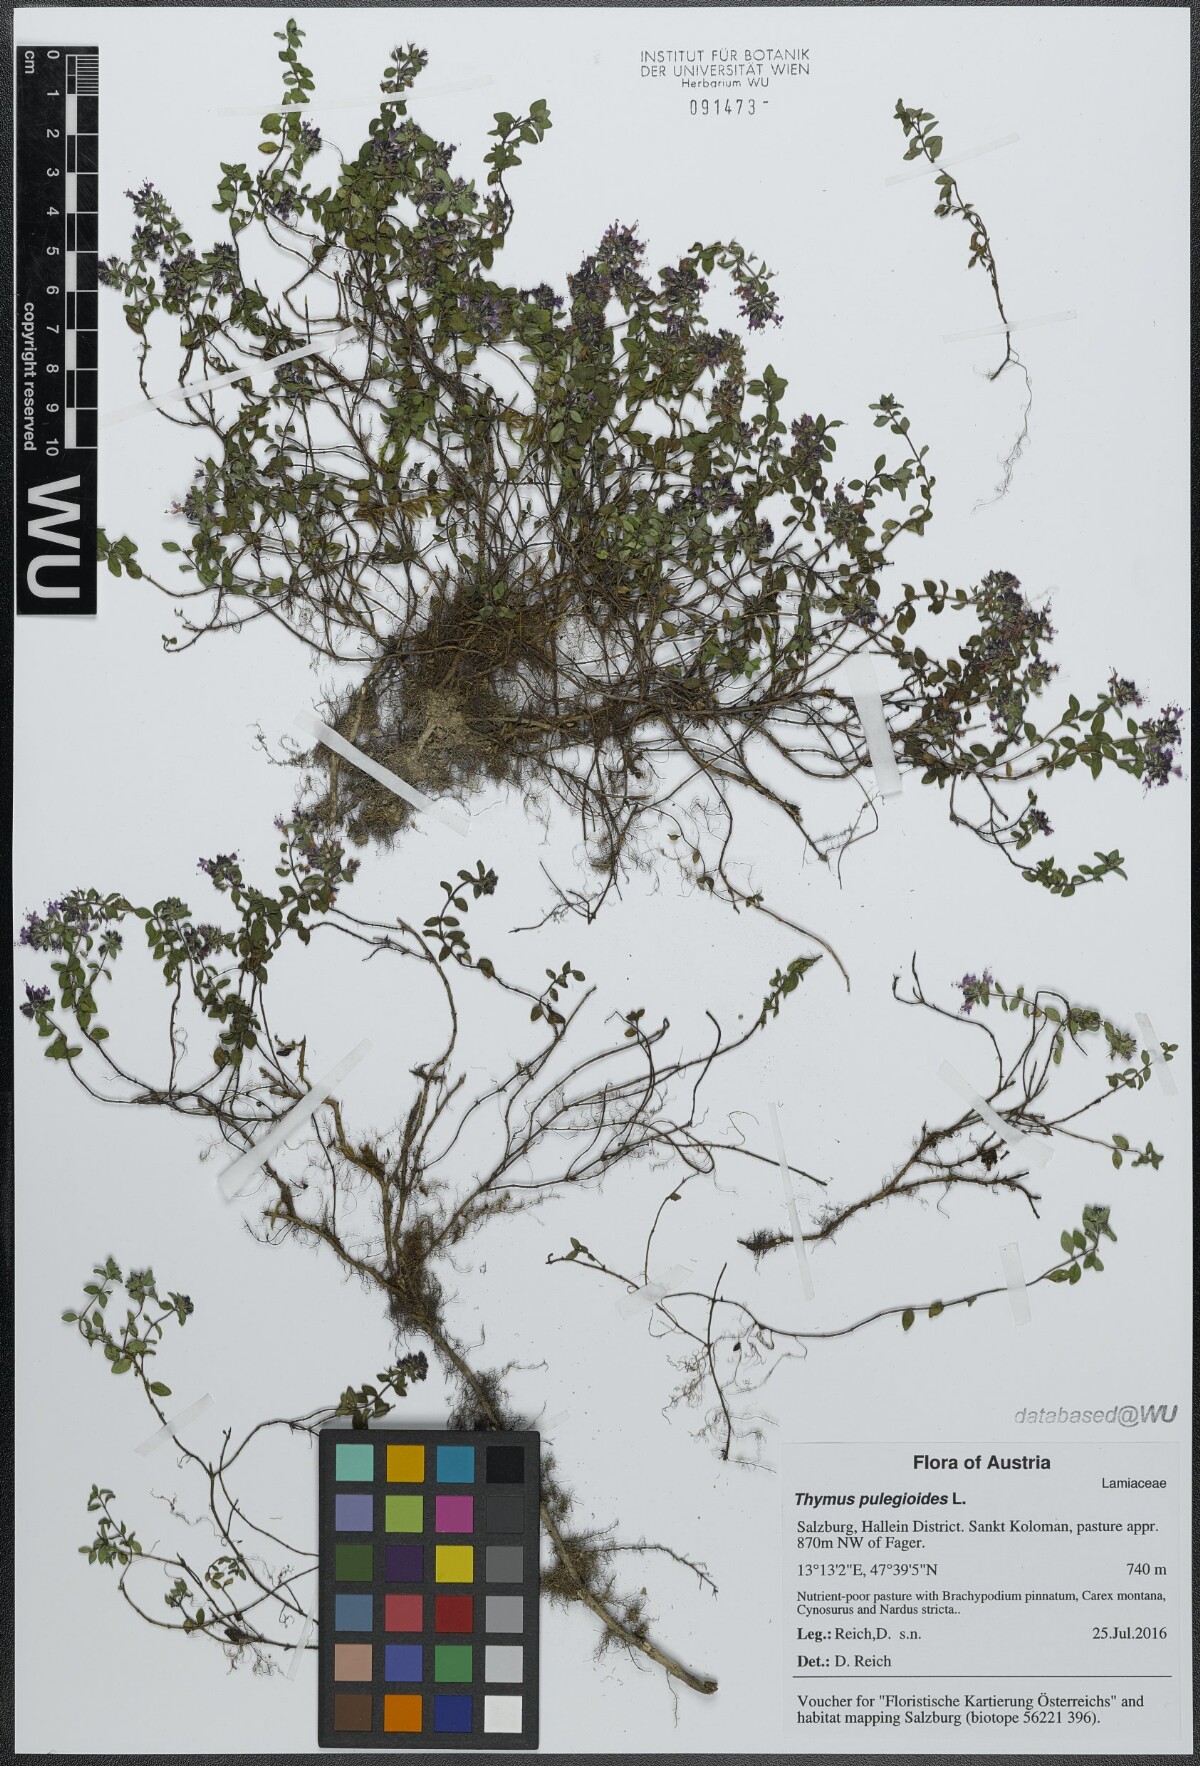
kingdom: Plantae
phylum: Tracheophyta
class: Magnoliopsida
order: Lamiales
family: Lamiaceae
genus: Thymus
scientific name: Thymus pulegioides
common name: Large thyme
